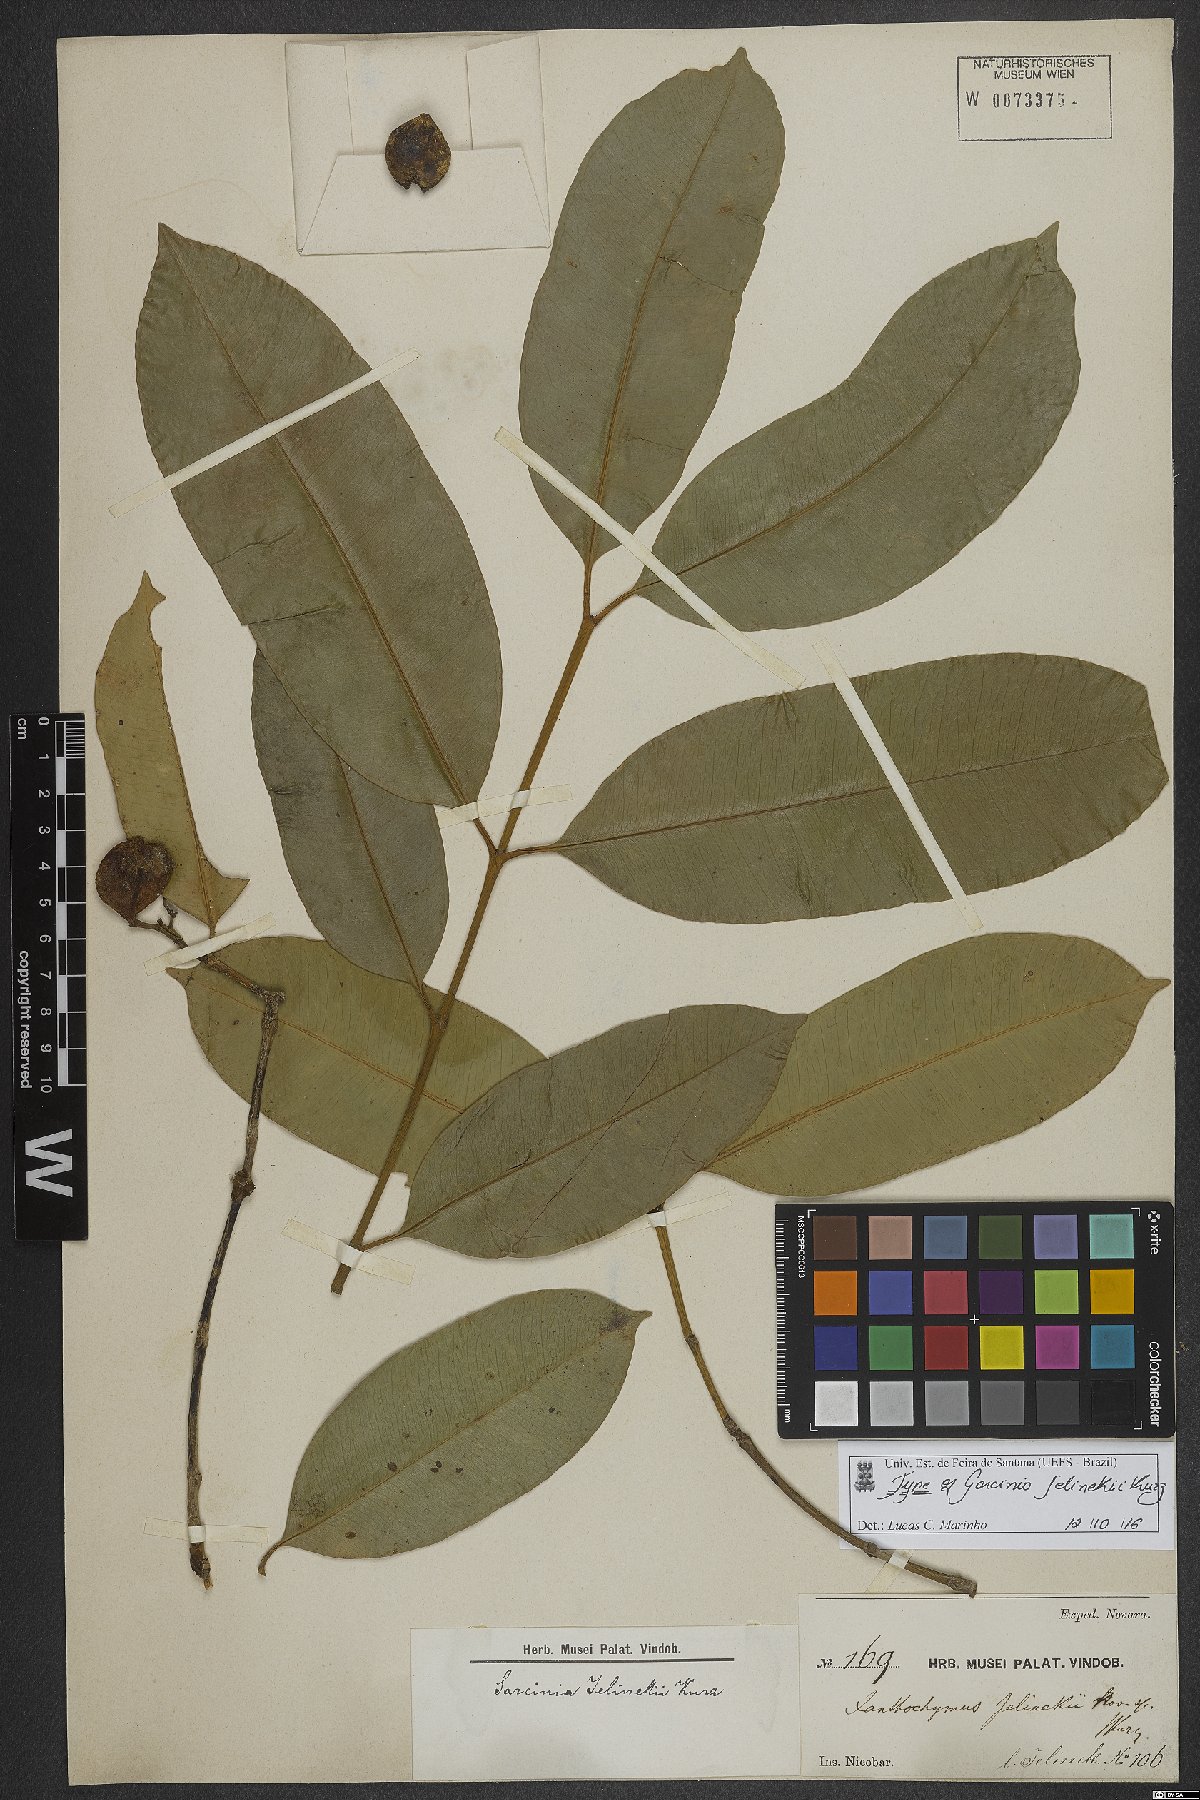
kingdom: Plantae
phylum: Tracheophyta
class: Magnoliopsida
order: Malpighiales
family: Clusiaceae
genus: Garcinia
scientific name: Garcinia jelinckii
